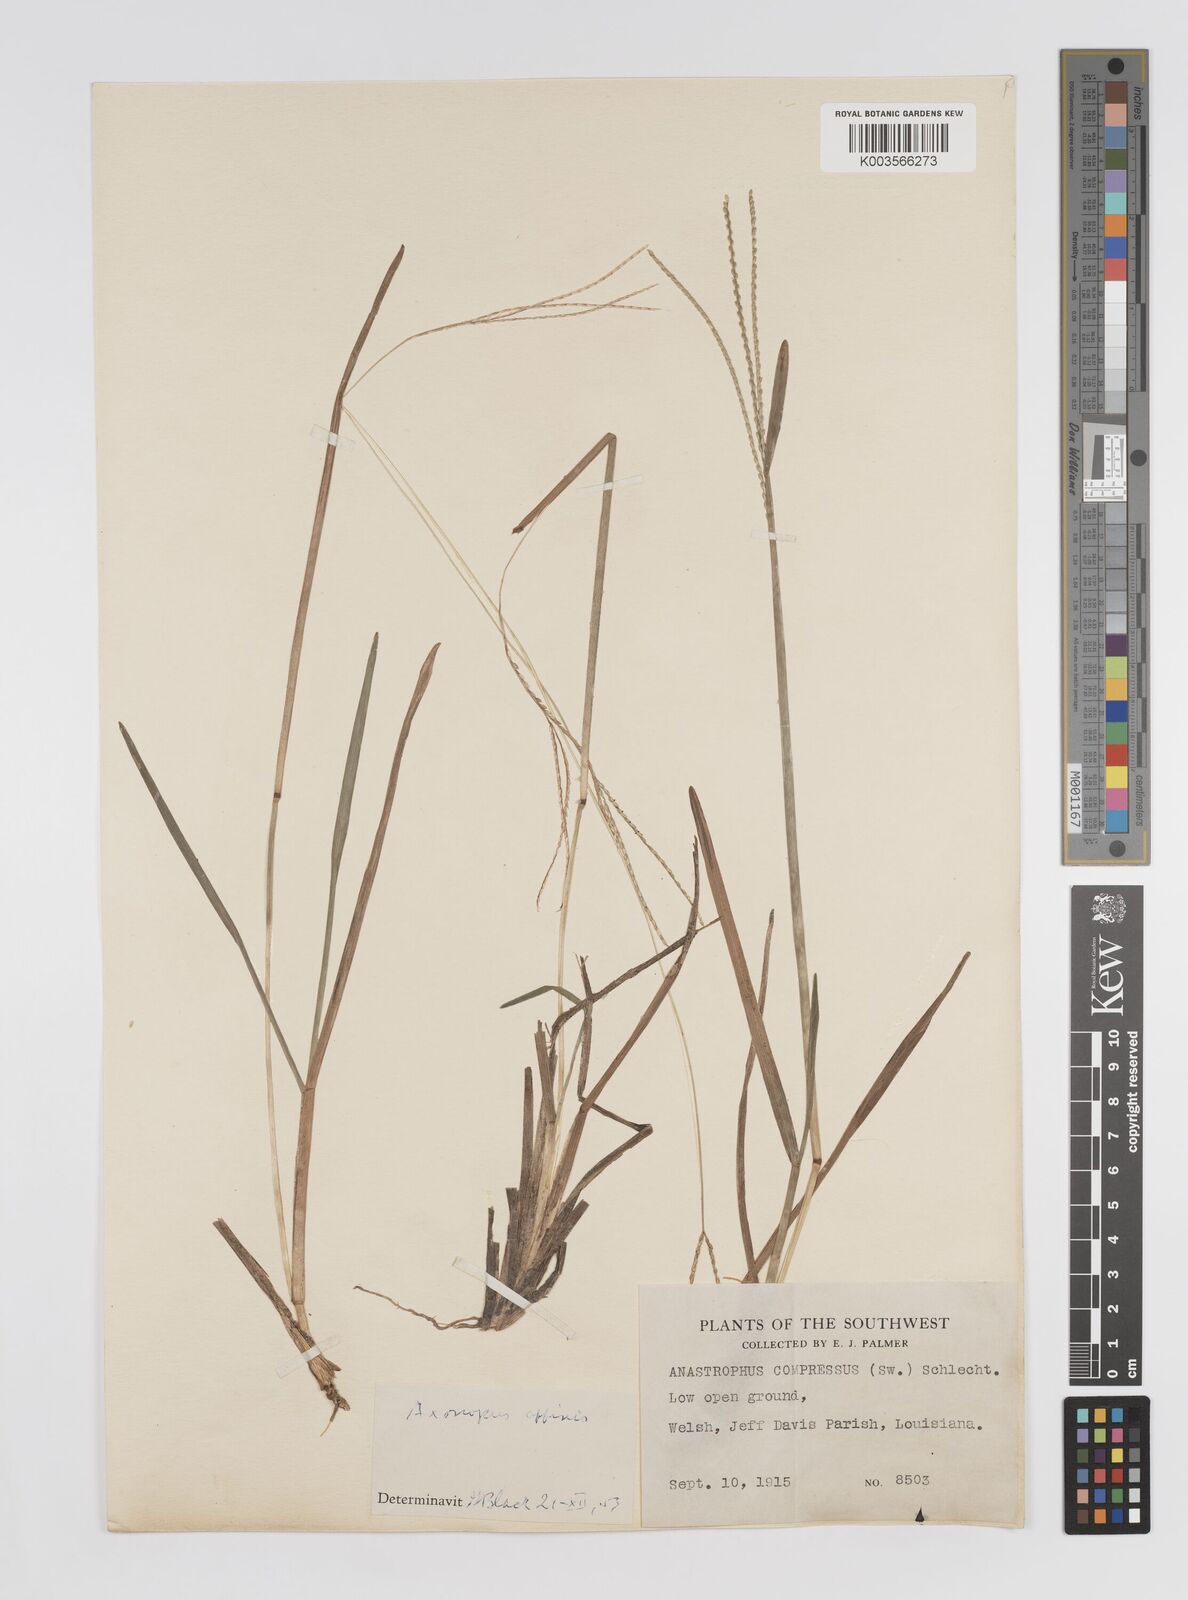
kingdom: Plantae
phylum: Tracheophyta
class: Liliopsida
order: Poales
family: Poaceae
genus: Axonopus
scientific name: Axonopus fissifolius
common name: Common carpetgrass
